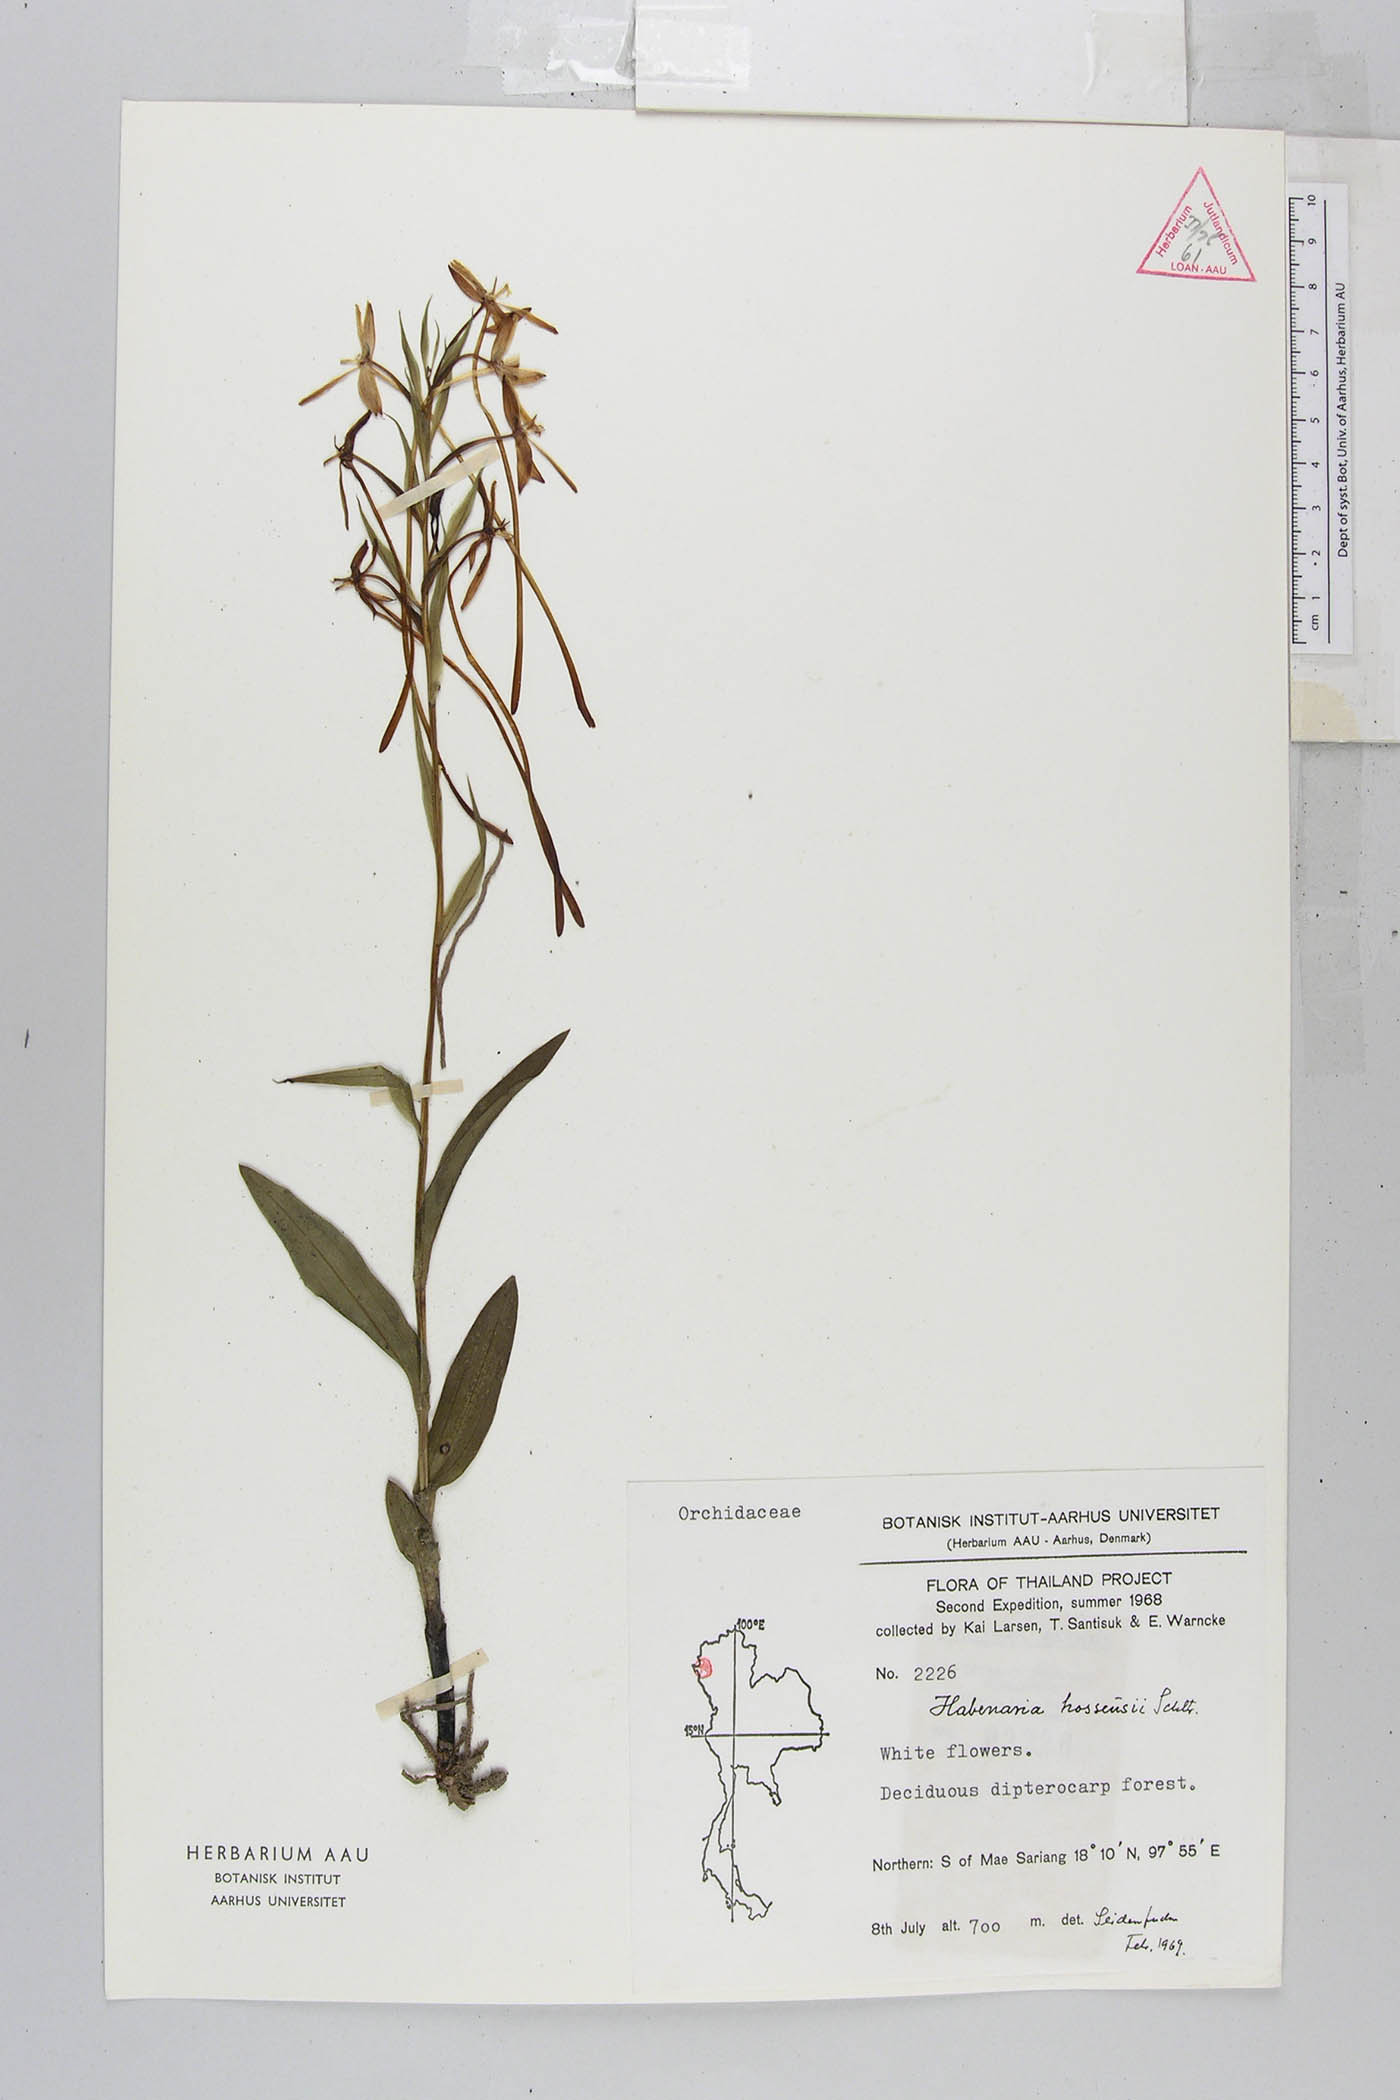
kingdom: Plantae
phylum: Tracheophyta
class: Liliopsida
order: Asparagales
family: Orchidaceae
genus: Habenaria
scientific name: Habenaria hosseusii
